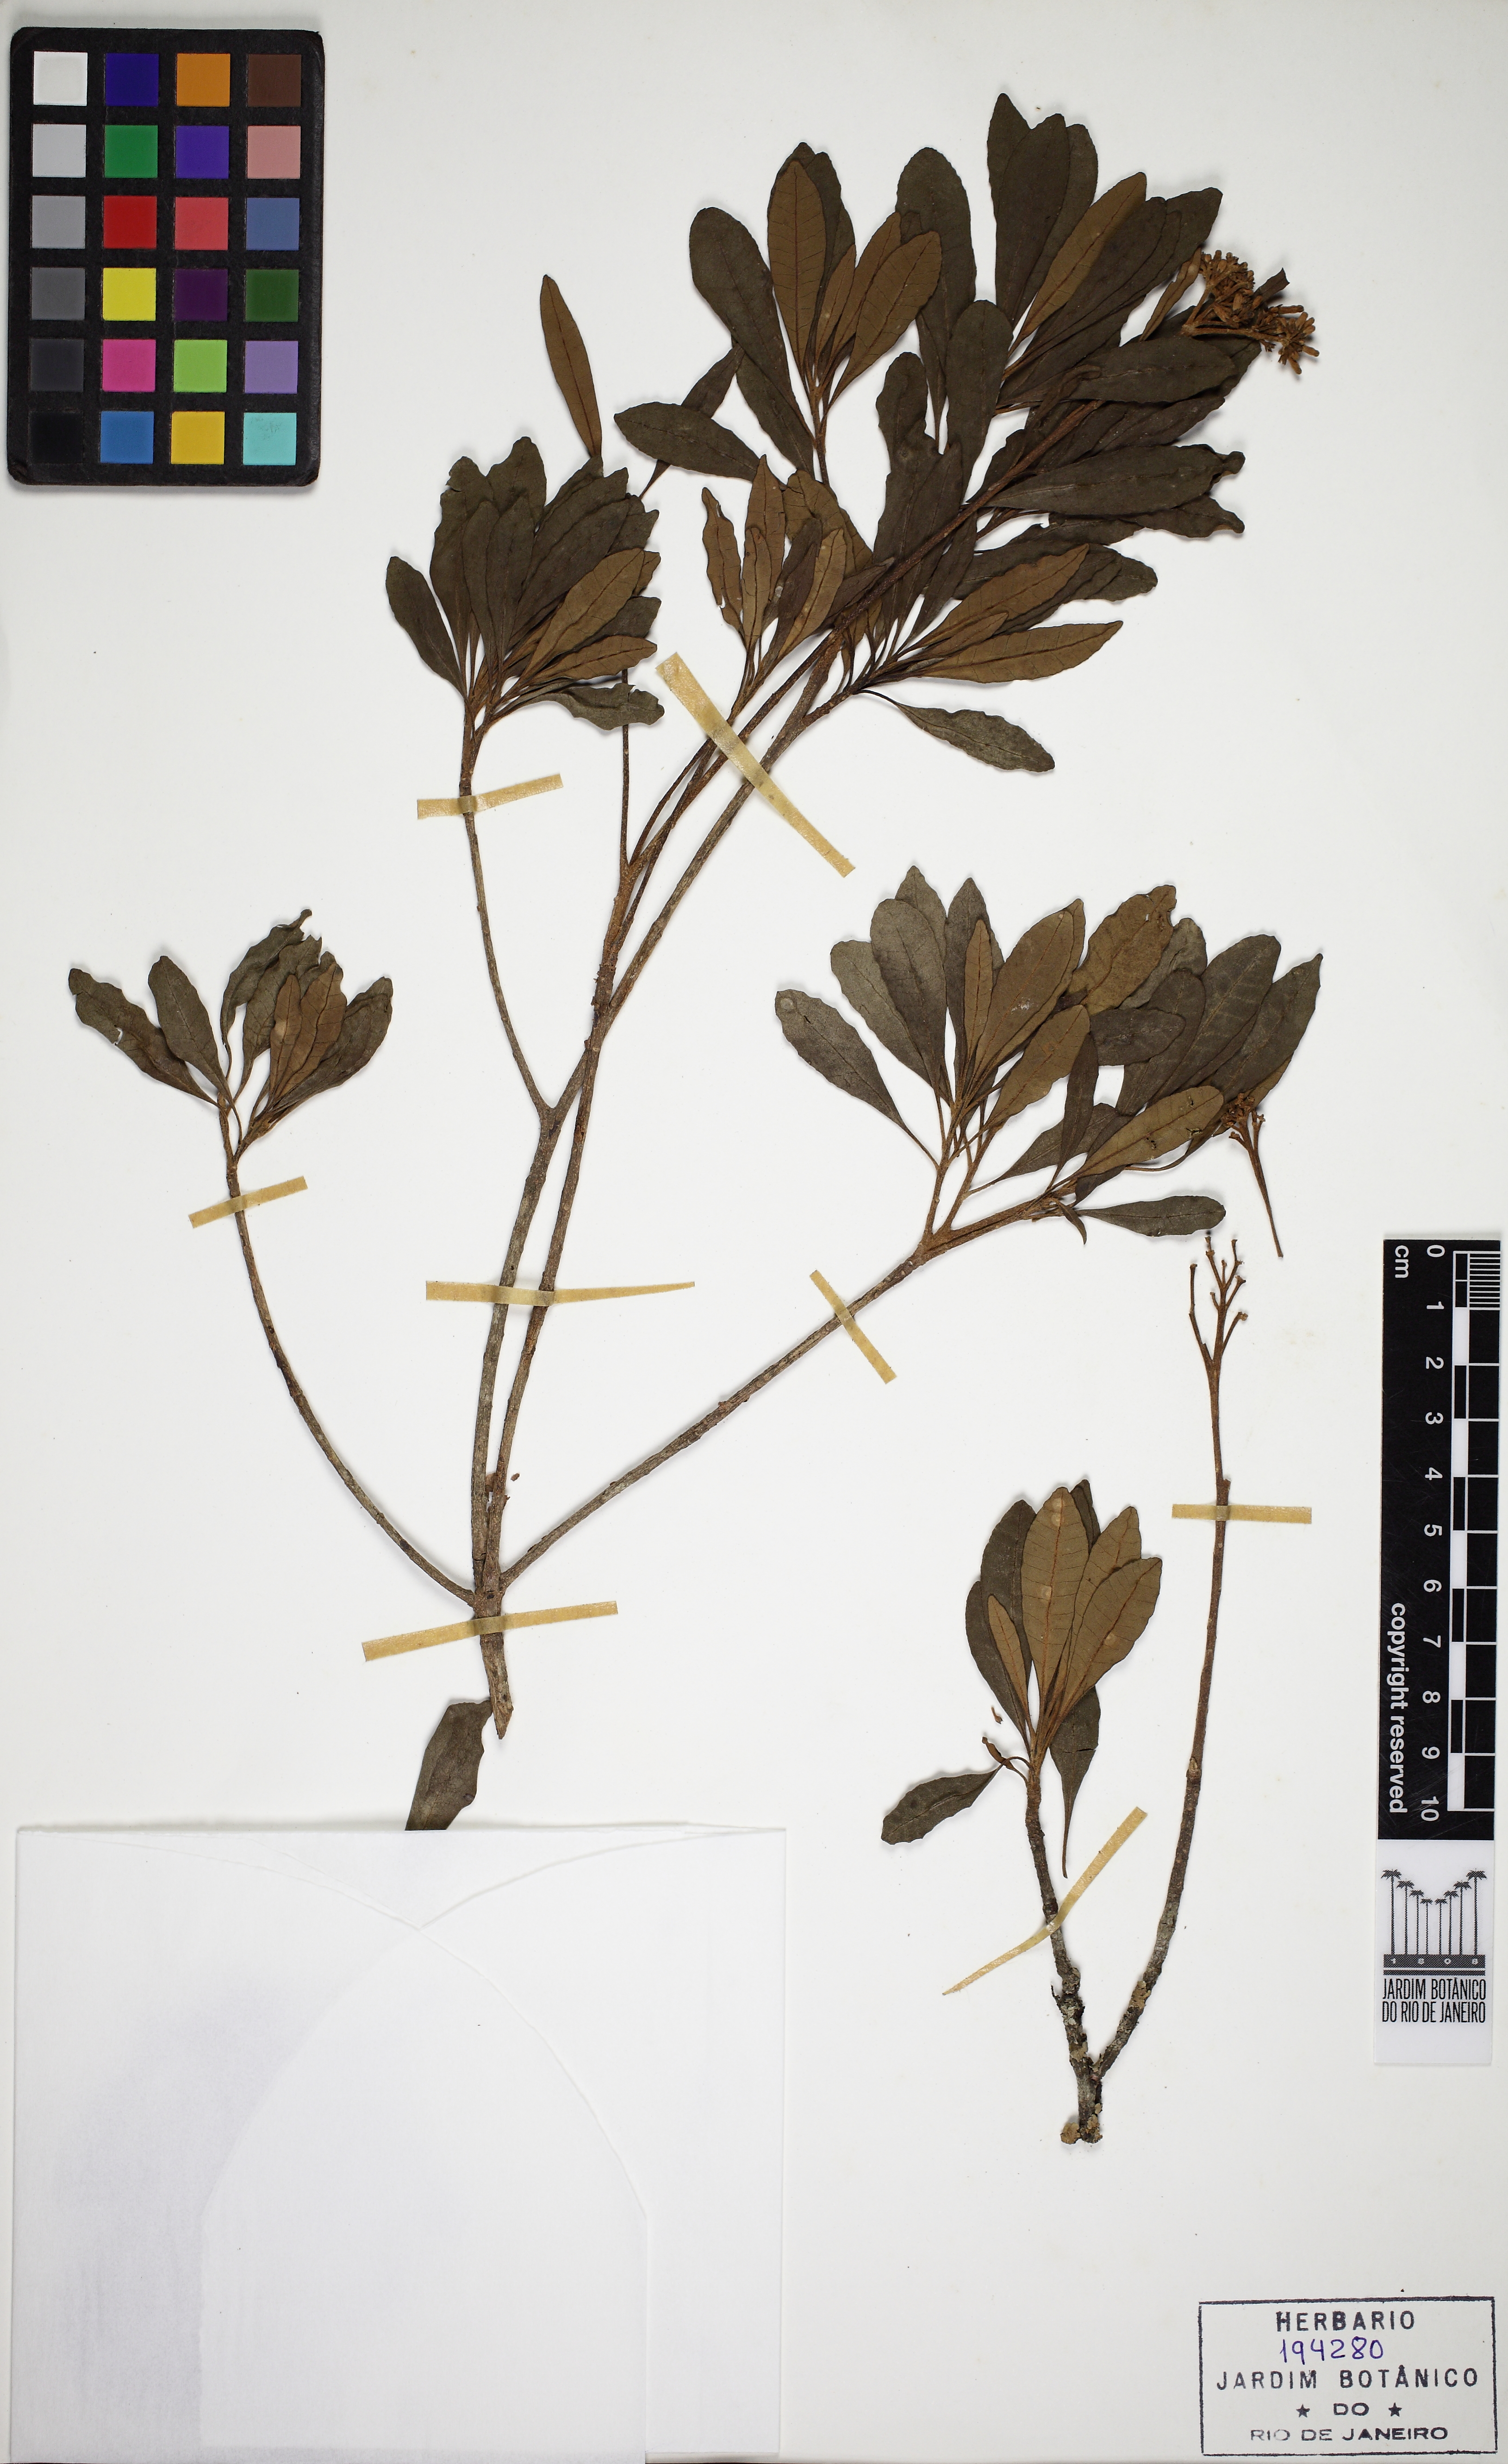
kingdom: Plantae
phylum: Tracheophyta
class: Magnoliopsida
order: Gentianales
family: Apocynaceae
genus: Aspidosperma
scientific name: Aspidosperma parvifolium
